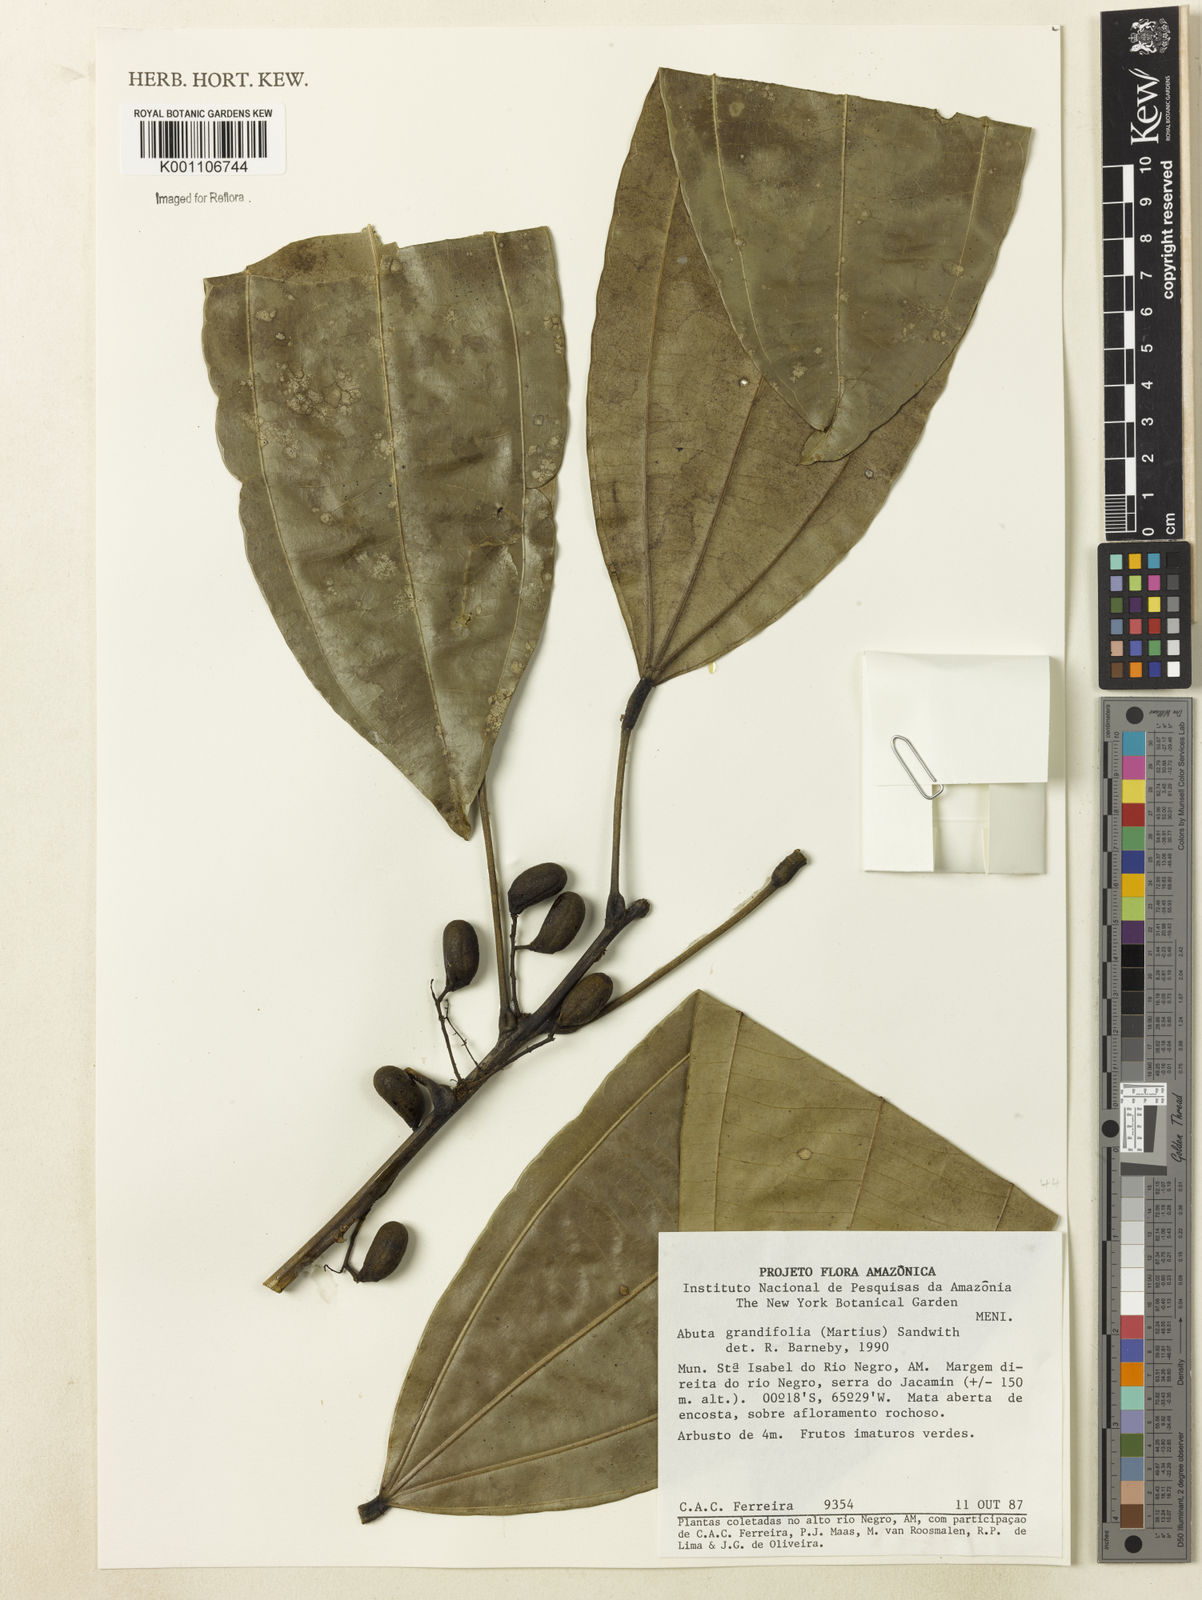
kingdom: Plantae
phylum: Tracheophyta
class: Magnoliopsida
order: Ranunculales
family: Menispermaceae
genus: Abuta
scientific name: Abuta grandifolia
